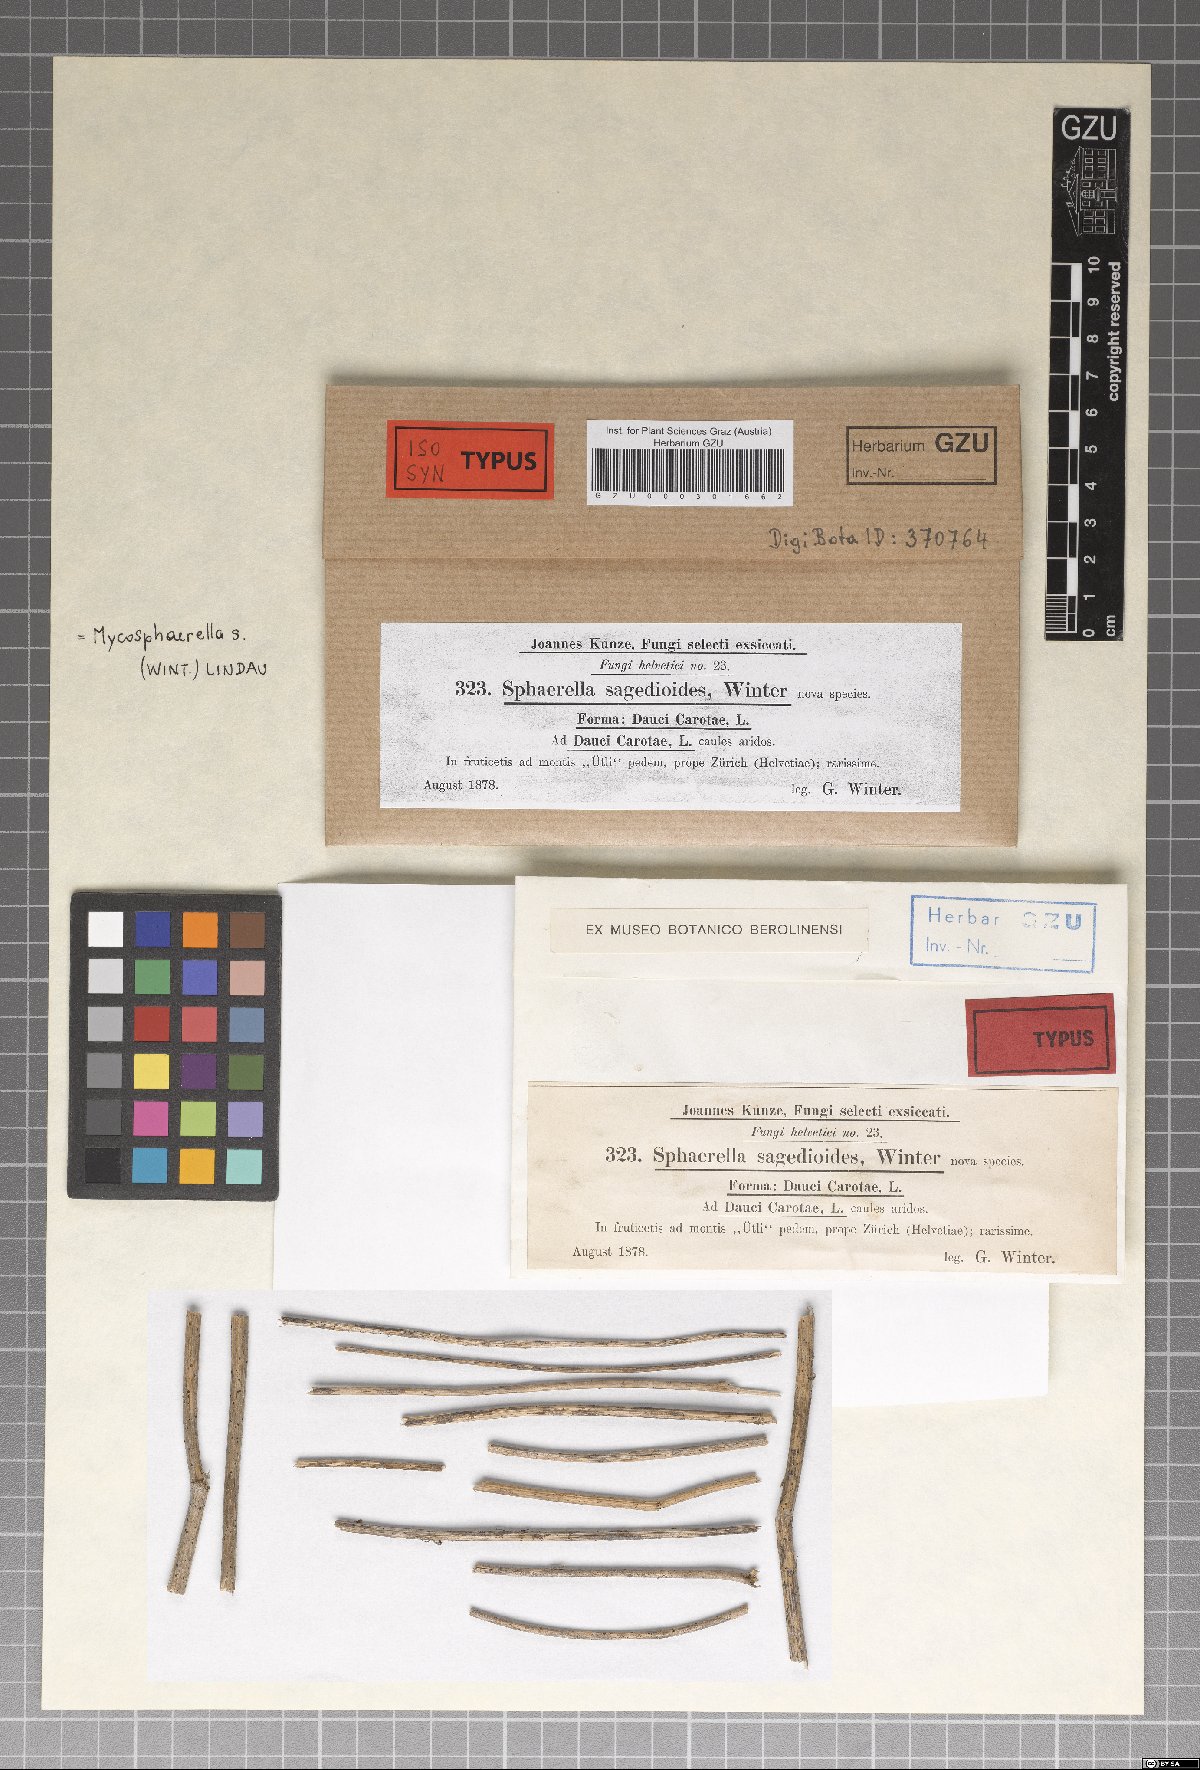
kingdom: Fungi
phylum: Ascomycota
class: Dothideomycetes
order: Mycosphaerellales
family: Mycosphaerellaceae
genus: Mycosphaerella
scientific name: Mycosphaerella sagedioides
